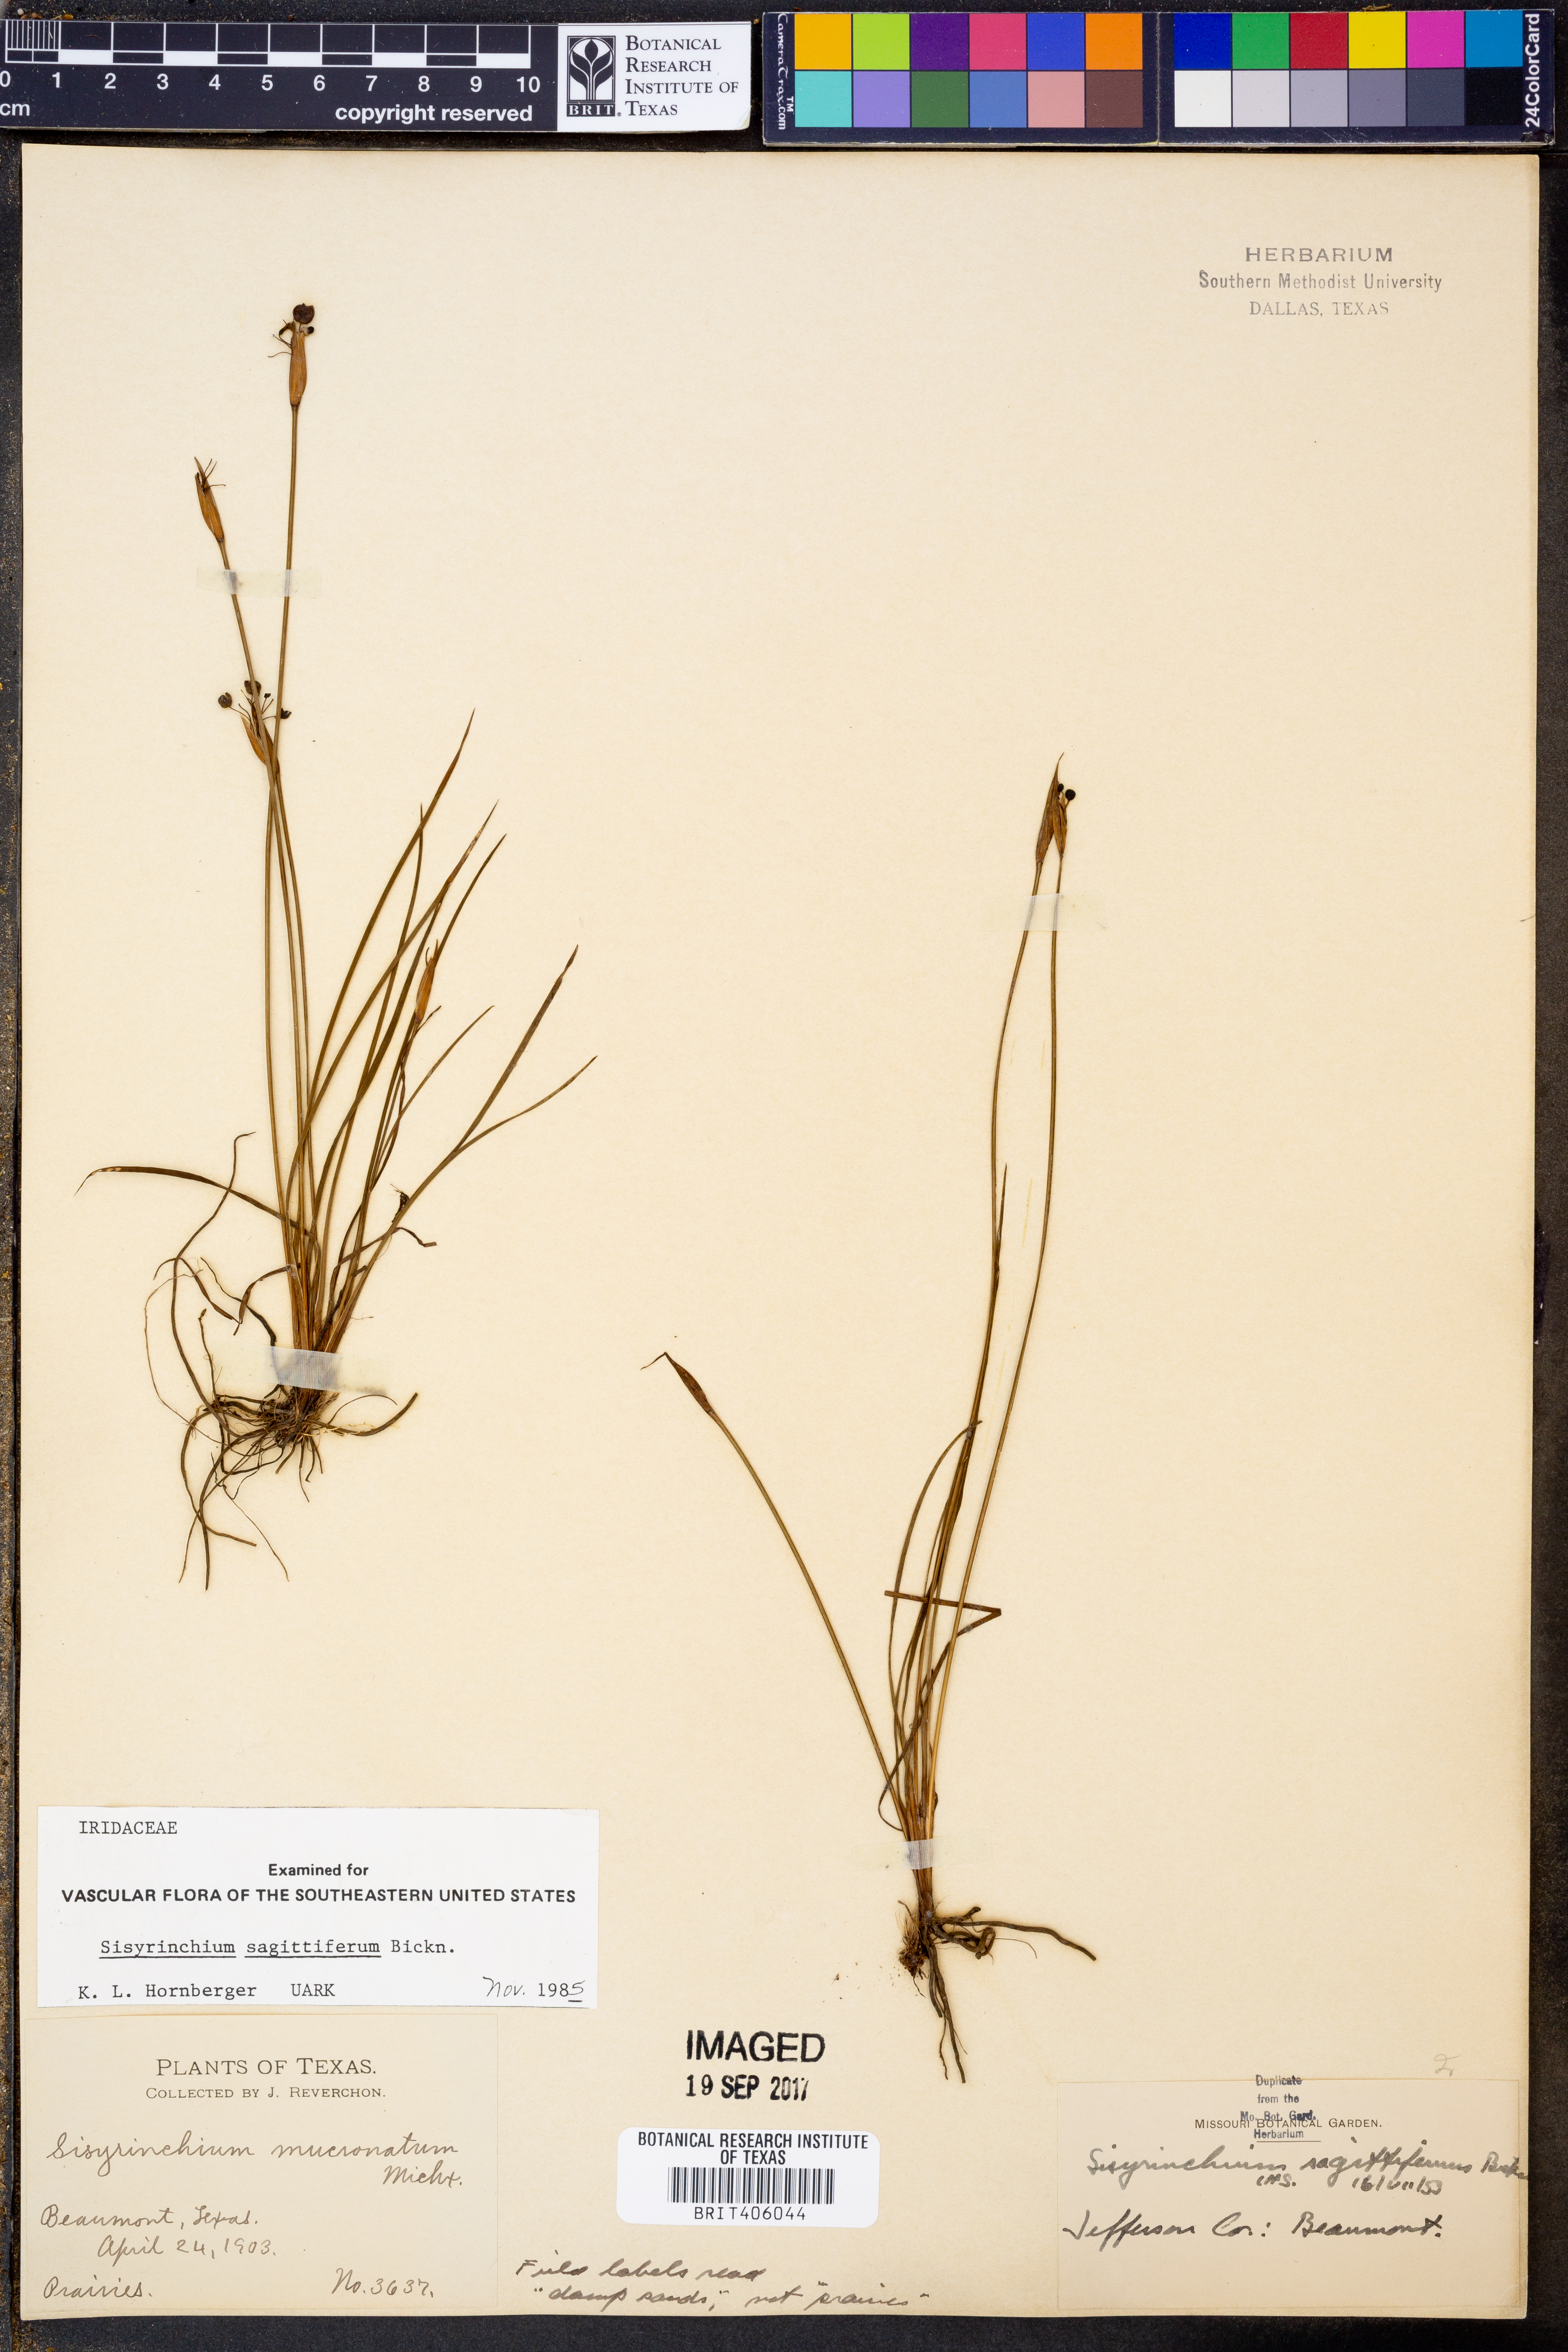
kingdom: Plantae
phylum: Tracheophyta
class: Liliopsida
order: Asparagales
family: Iridaceae
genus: Sisyrinchium
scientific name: Sisyrinchium sagittiferum
